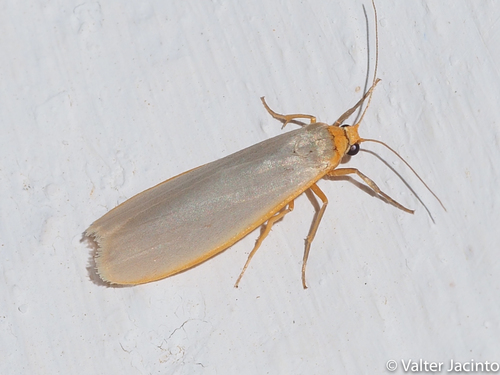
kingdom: Animalia
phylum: Arthropoda
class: Insecta
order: Lepidoptera
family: Erebidae
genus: Eilema
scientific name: Eilema caniola
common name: Hoary footman
